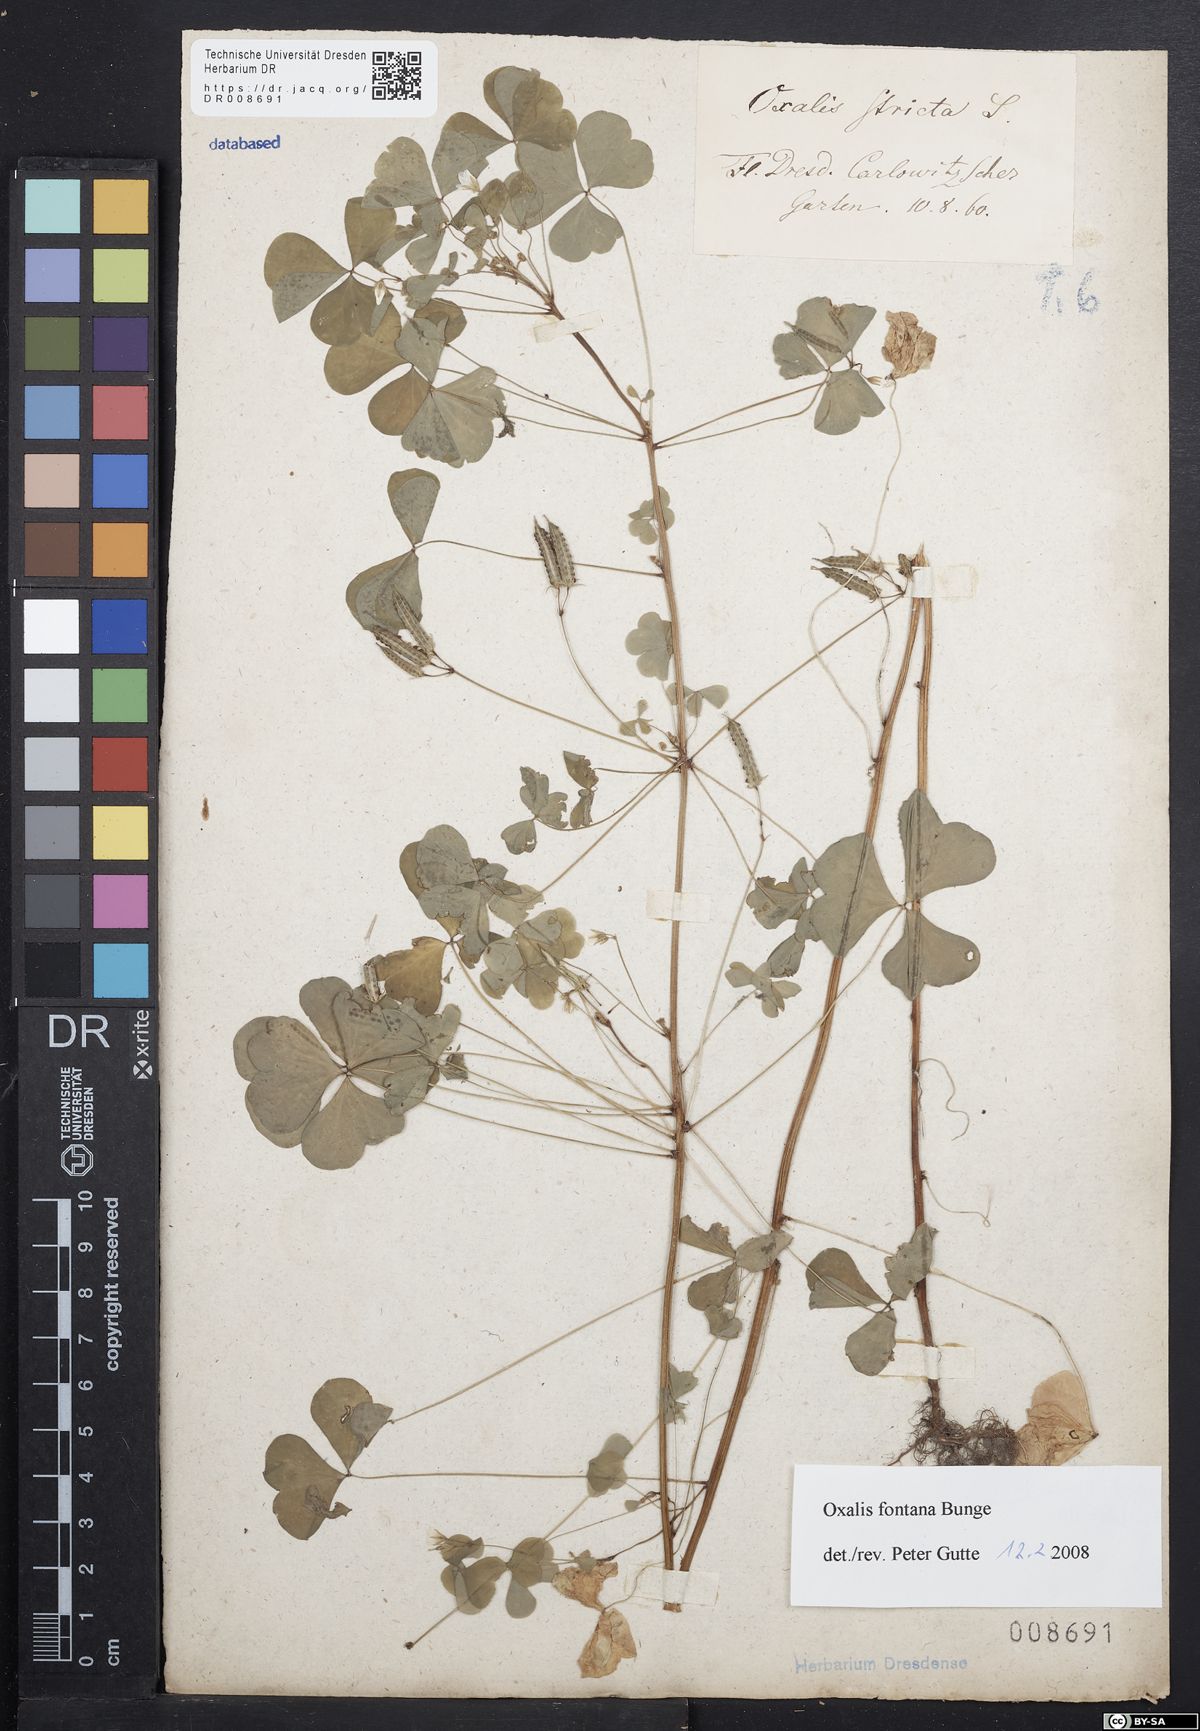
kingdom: Plantae
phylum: Tracheophyta
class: Magnoliopsida
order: Oxalidales
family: Oxalidaceae
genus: Oxalis
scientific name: Oxalis stricta
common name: Upright yellow-sorrel
